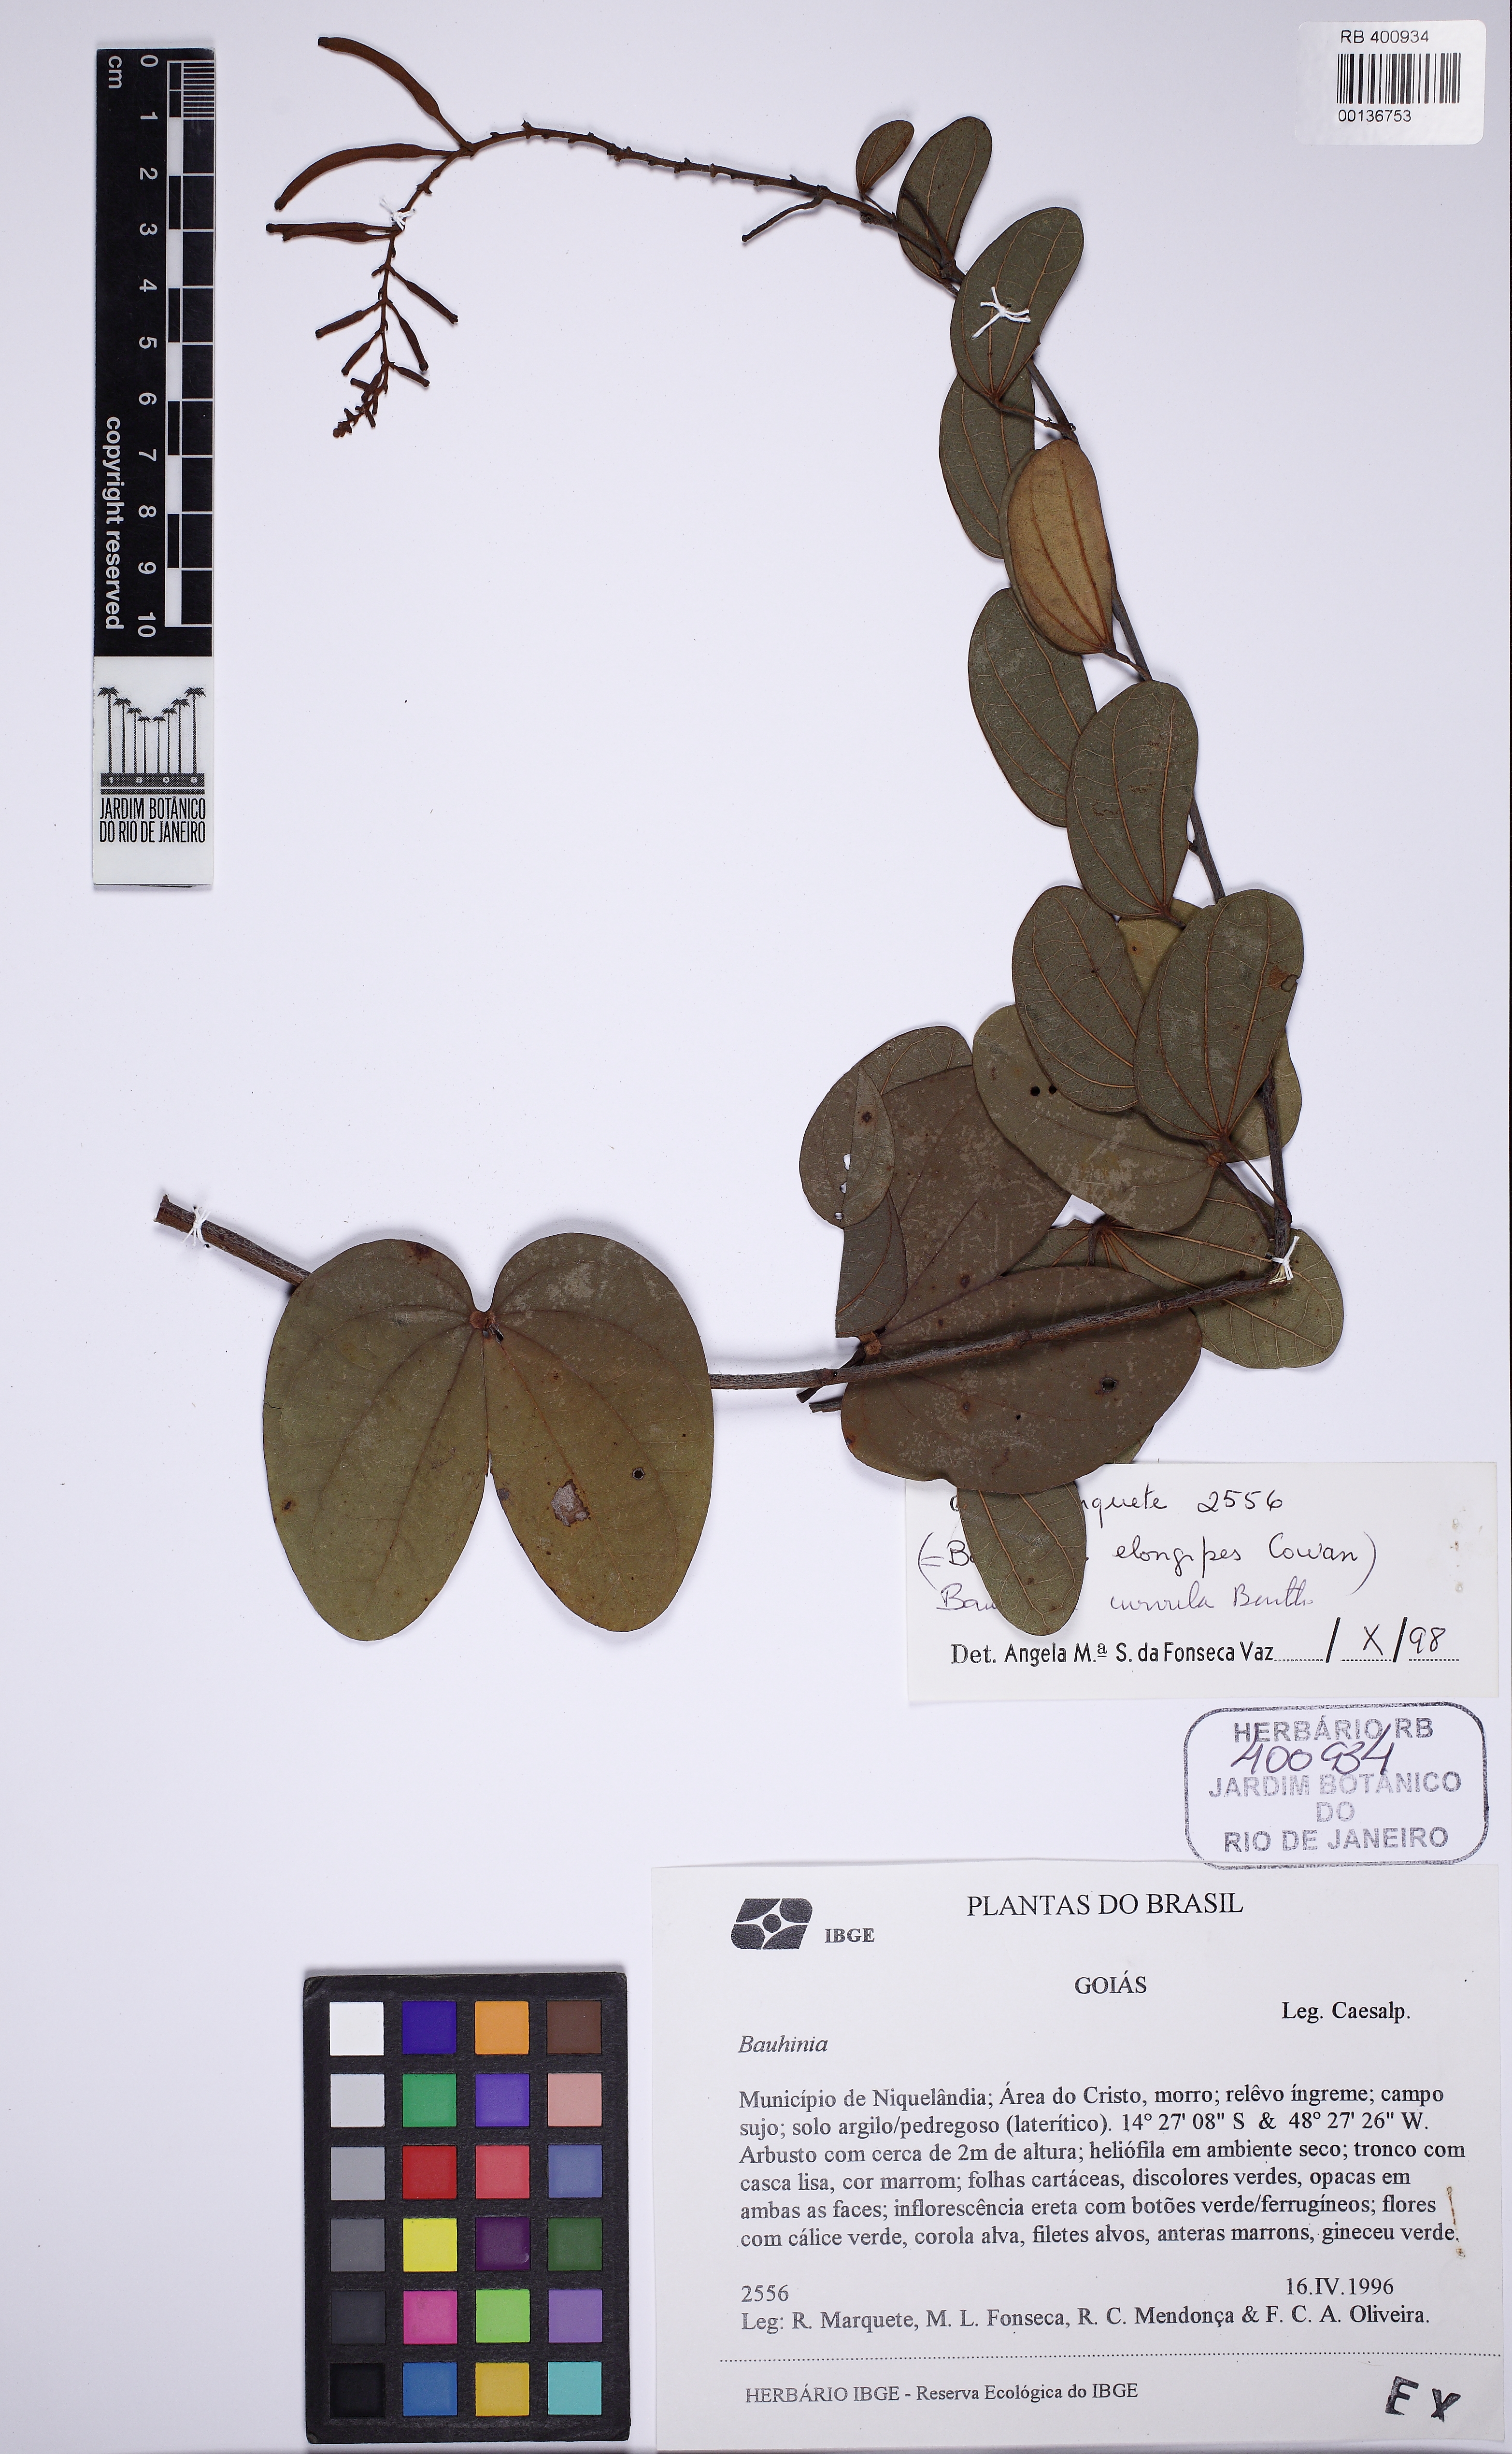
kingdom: Plantae
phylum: Tracheophyta
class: Magnoliopsida
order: Fabales
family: Fabaceae
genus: Bauhinia
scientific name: Bauhinia curvula
